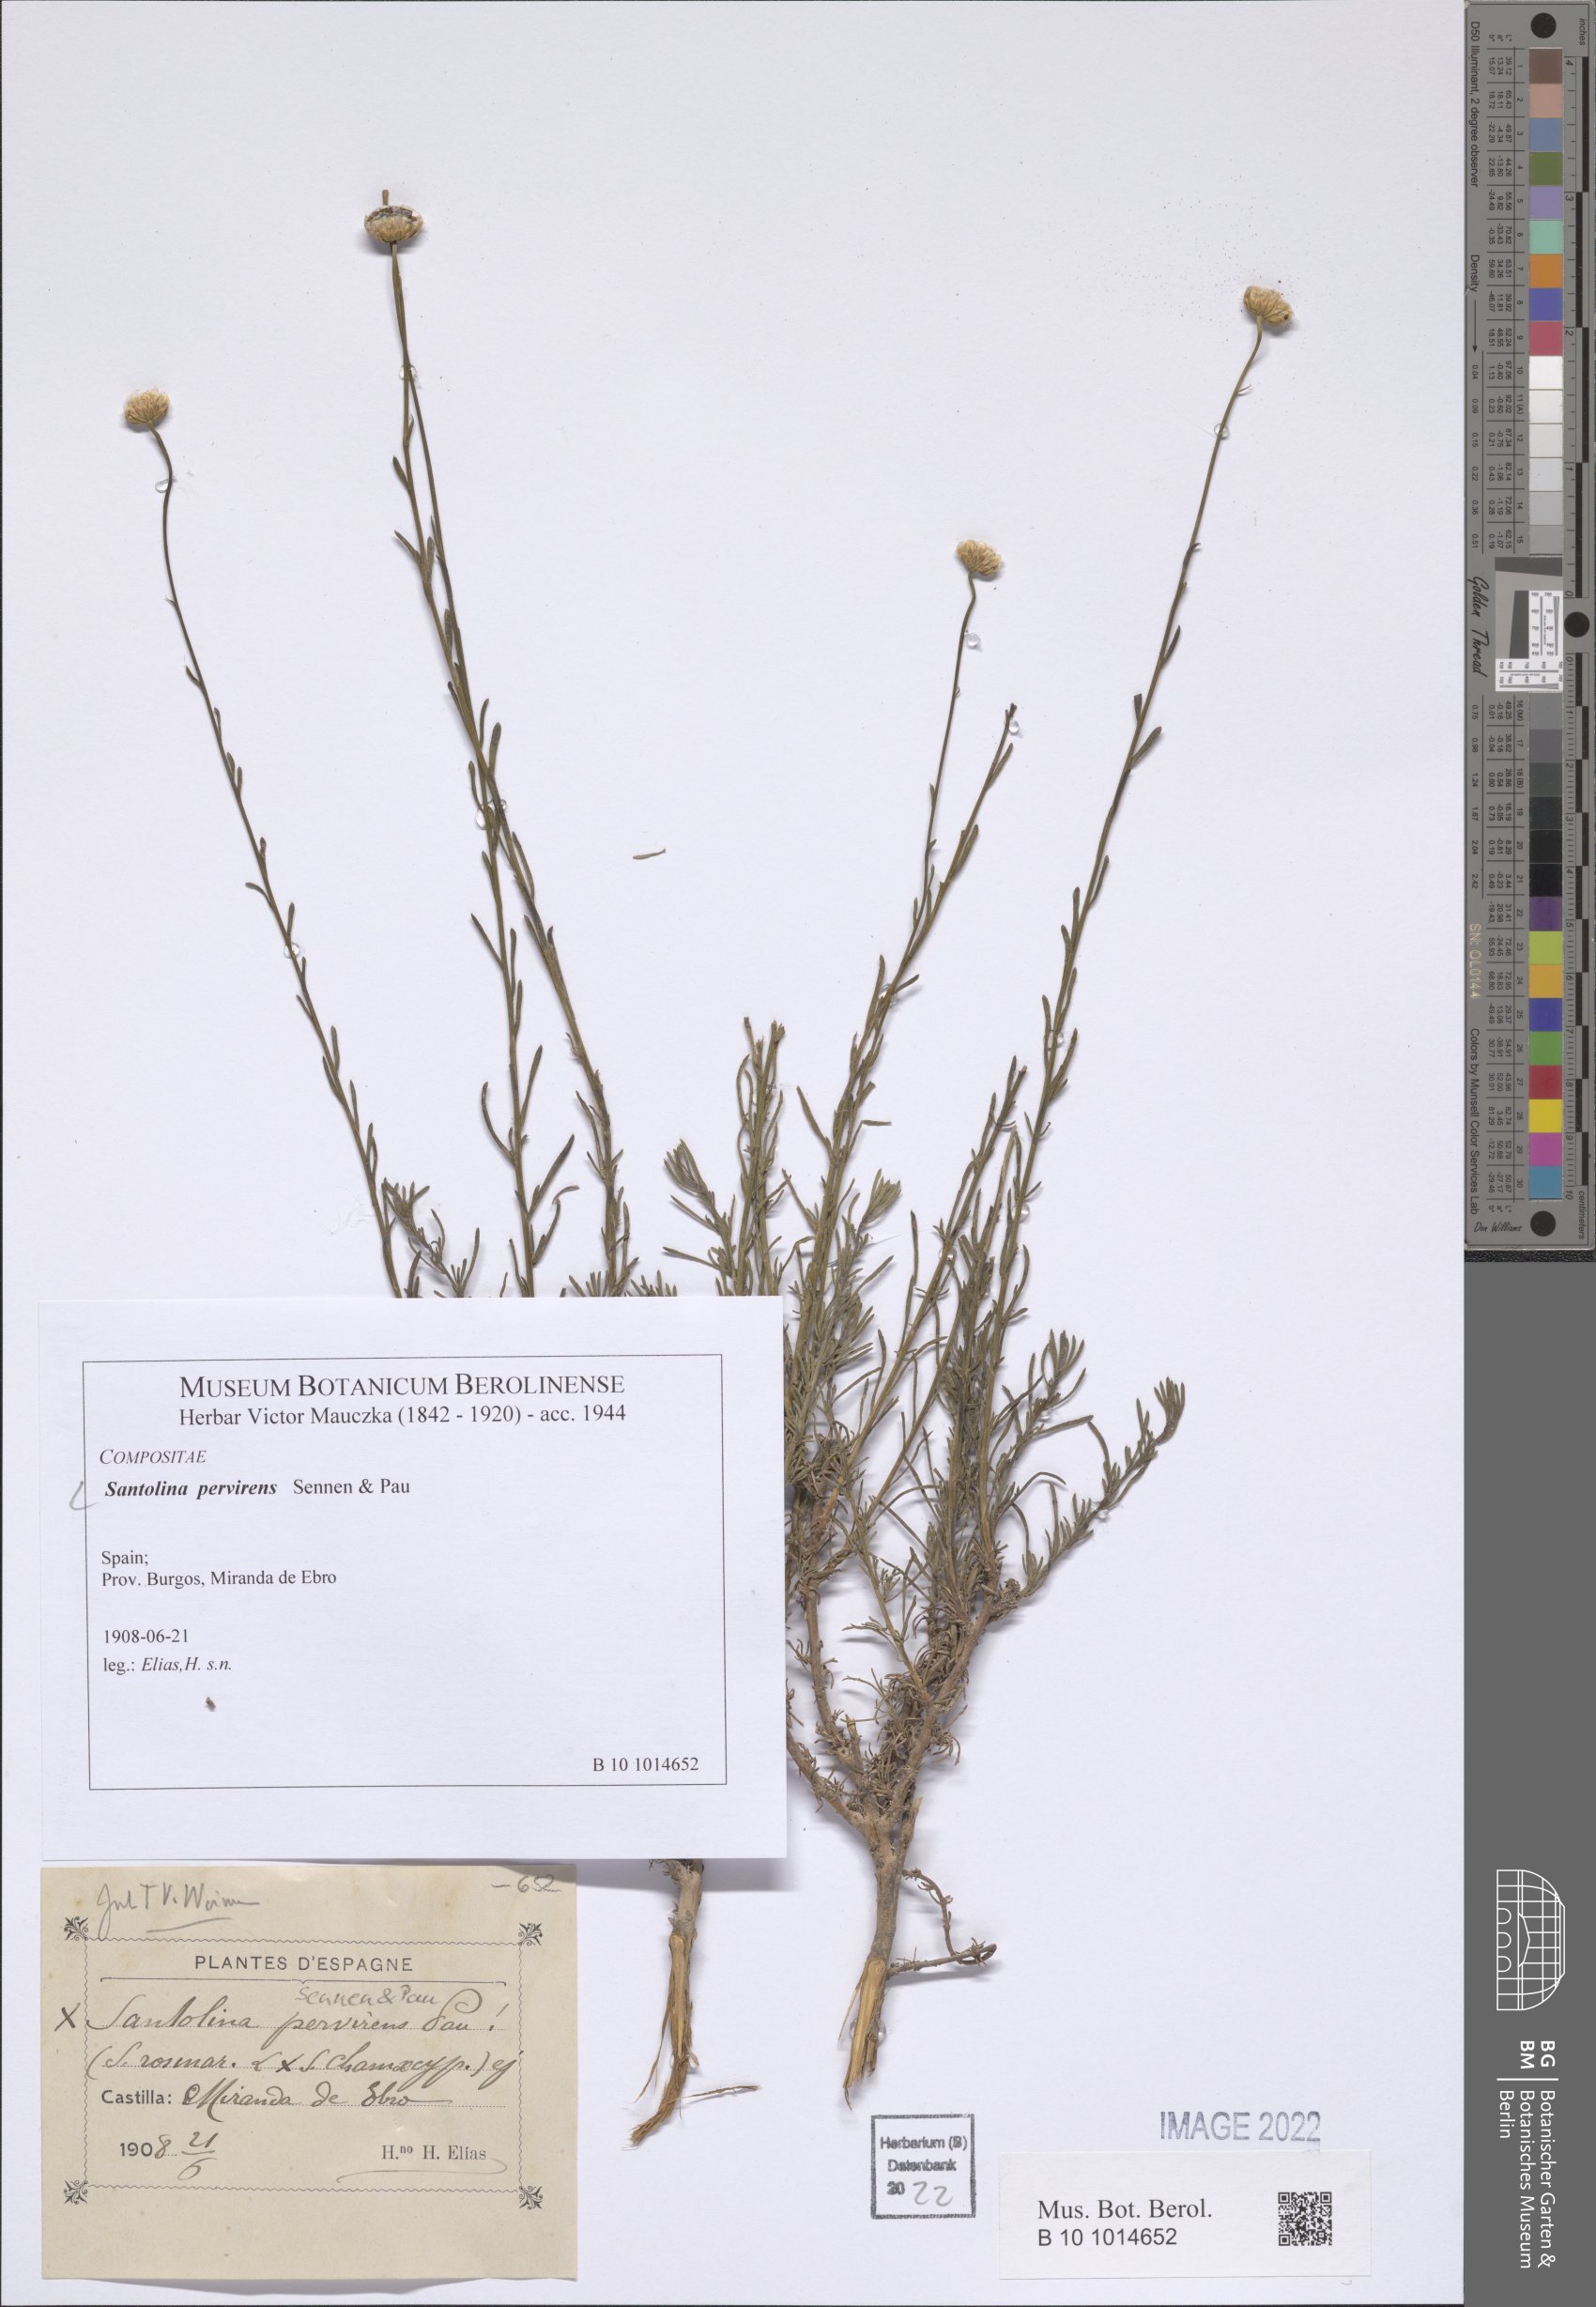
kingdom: Plantae
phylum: Tracheophyta
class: Magnoliopsida
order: Asterales
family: Asteraceae
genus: Santolina
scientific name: Santolina virens
